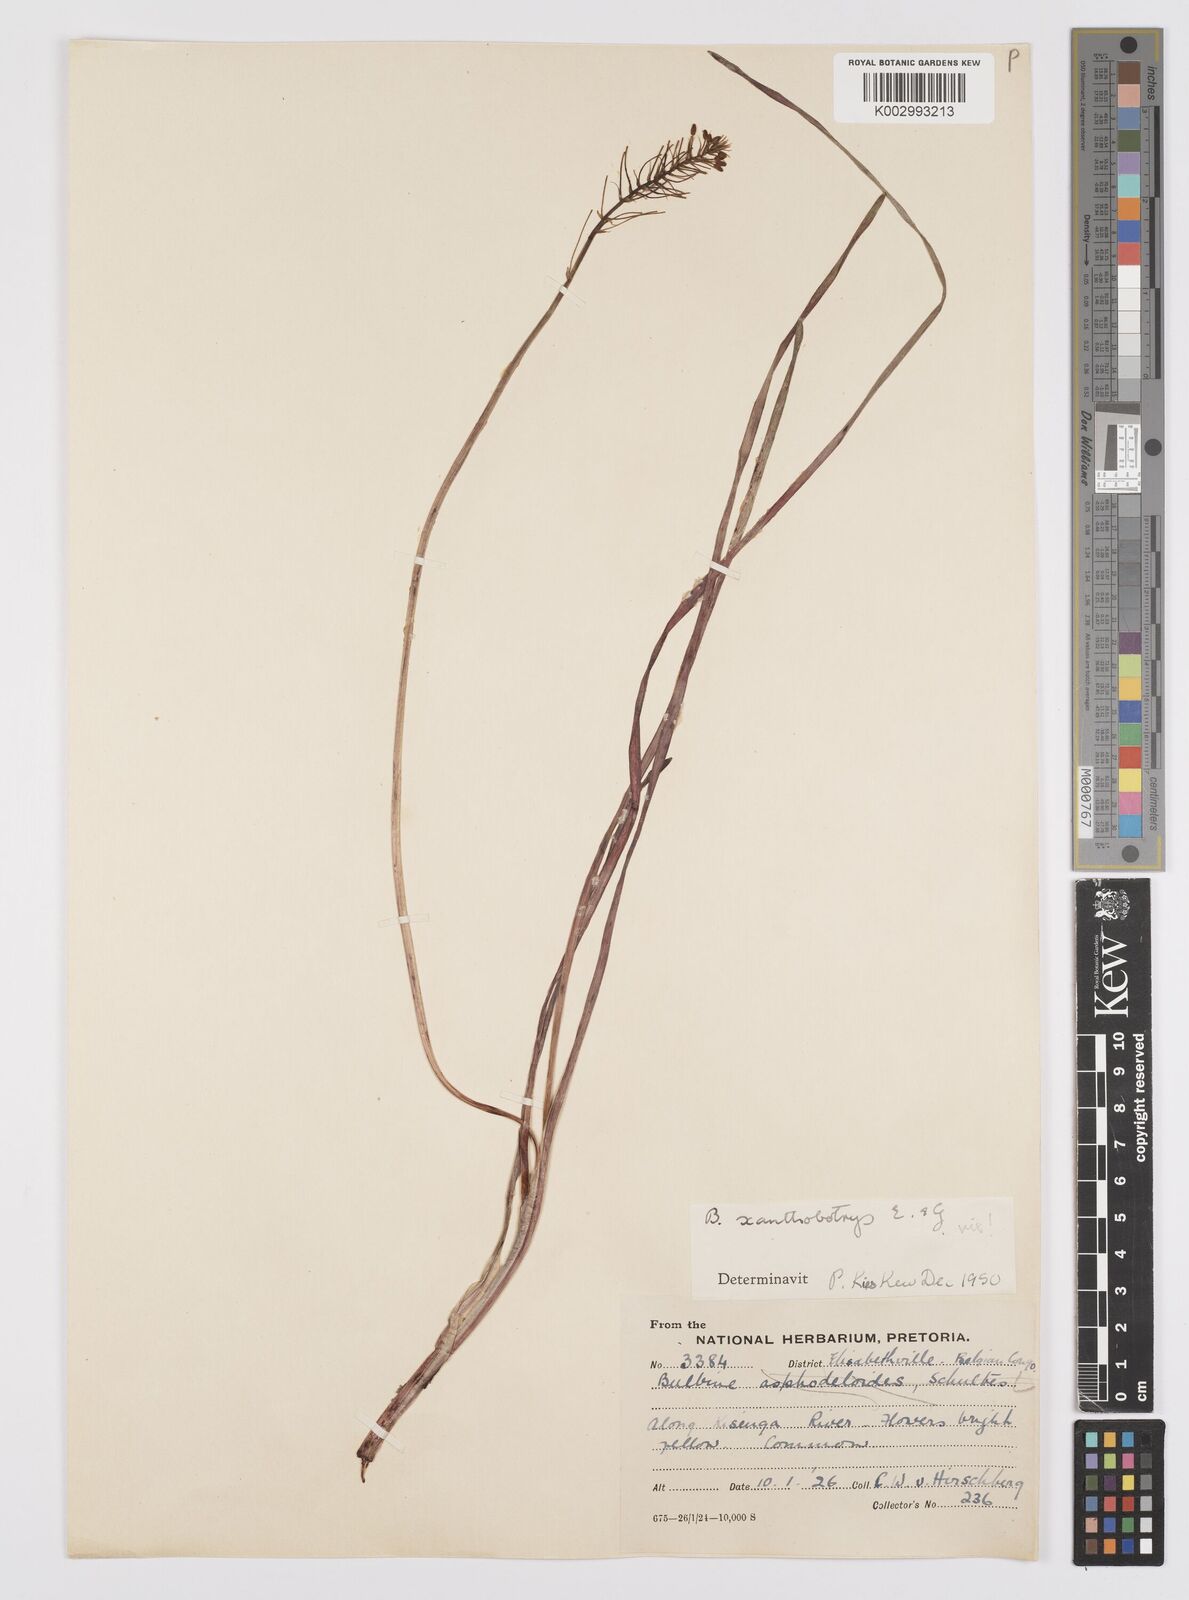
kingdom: Plantae
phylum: Tracheophyta
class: Liliopsida
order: Asparagales
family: Asphodelaceae
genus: Bulbine
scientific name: Bulbine abyssinica
